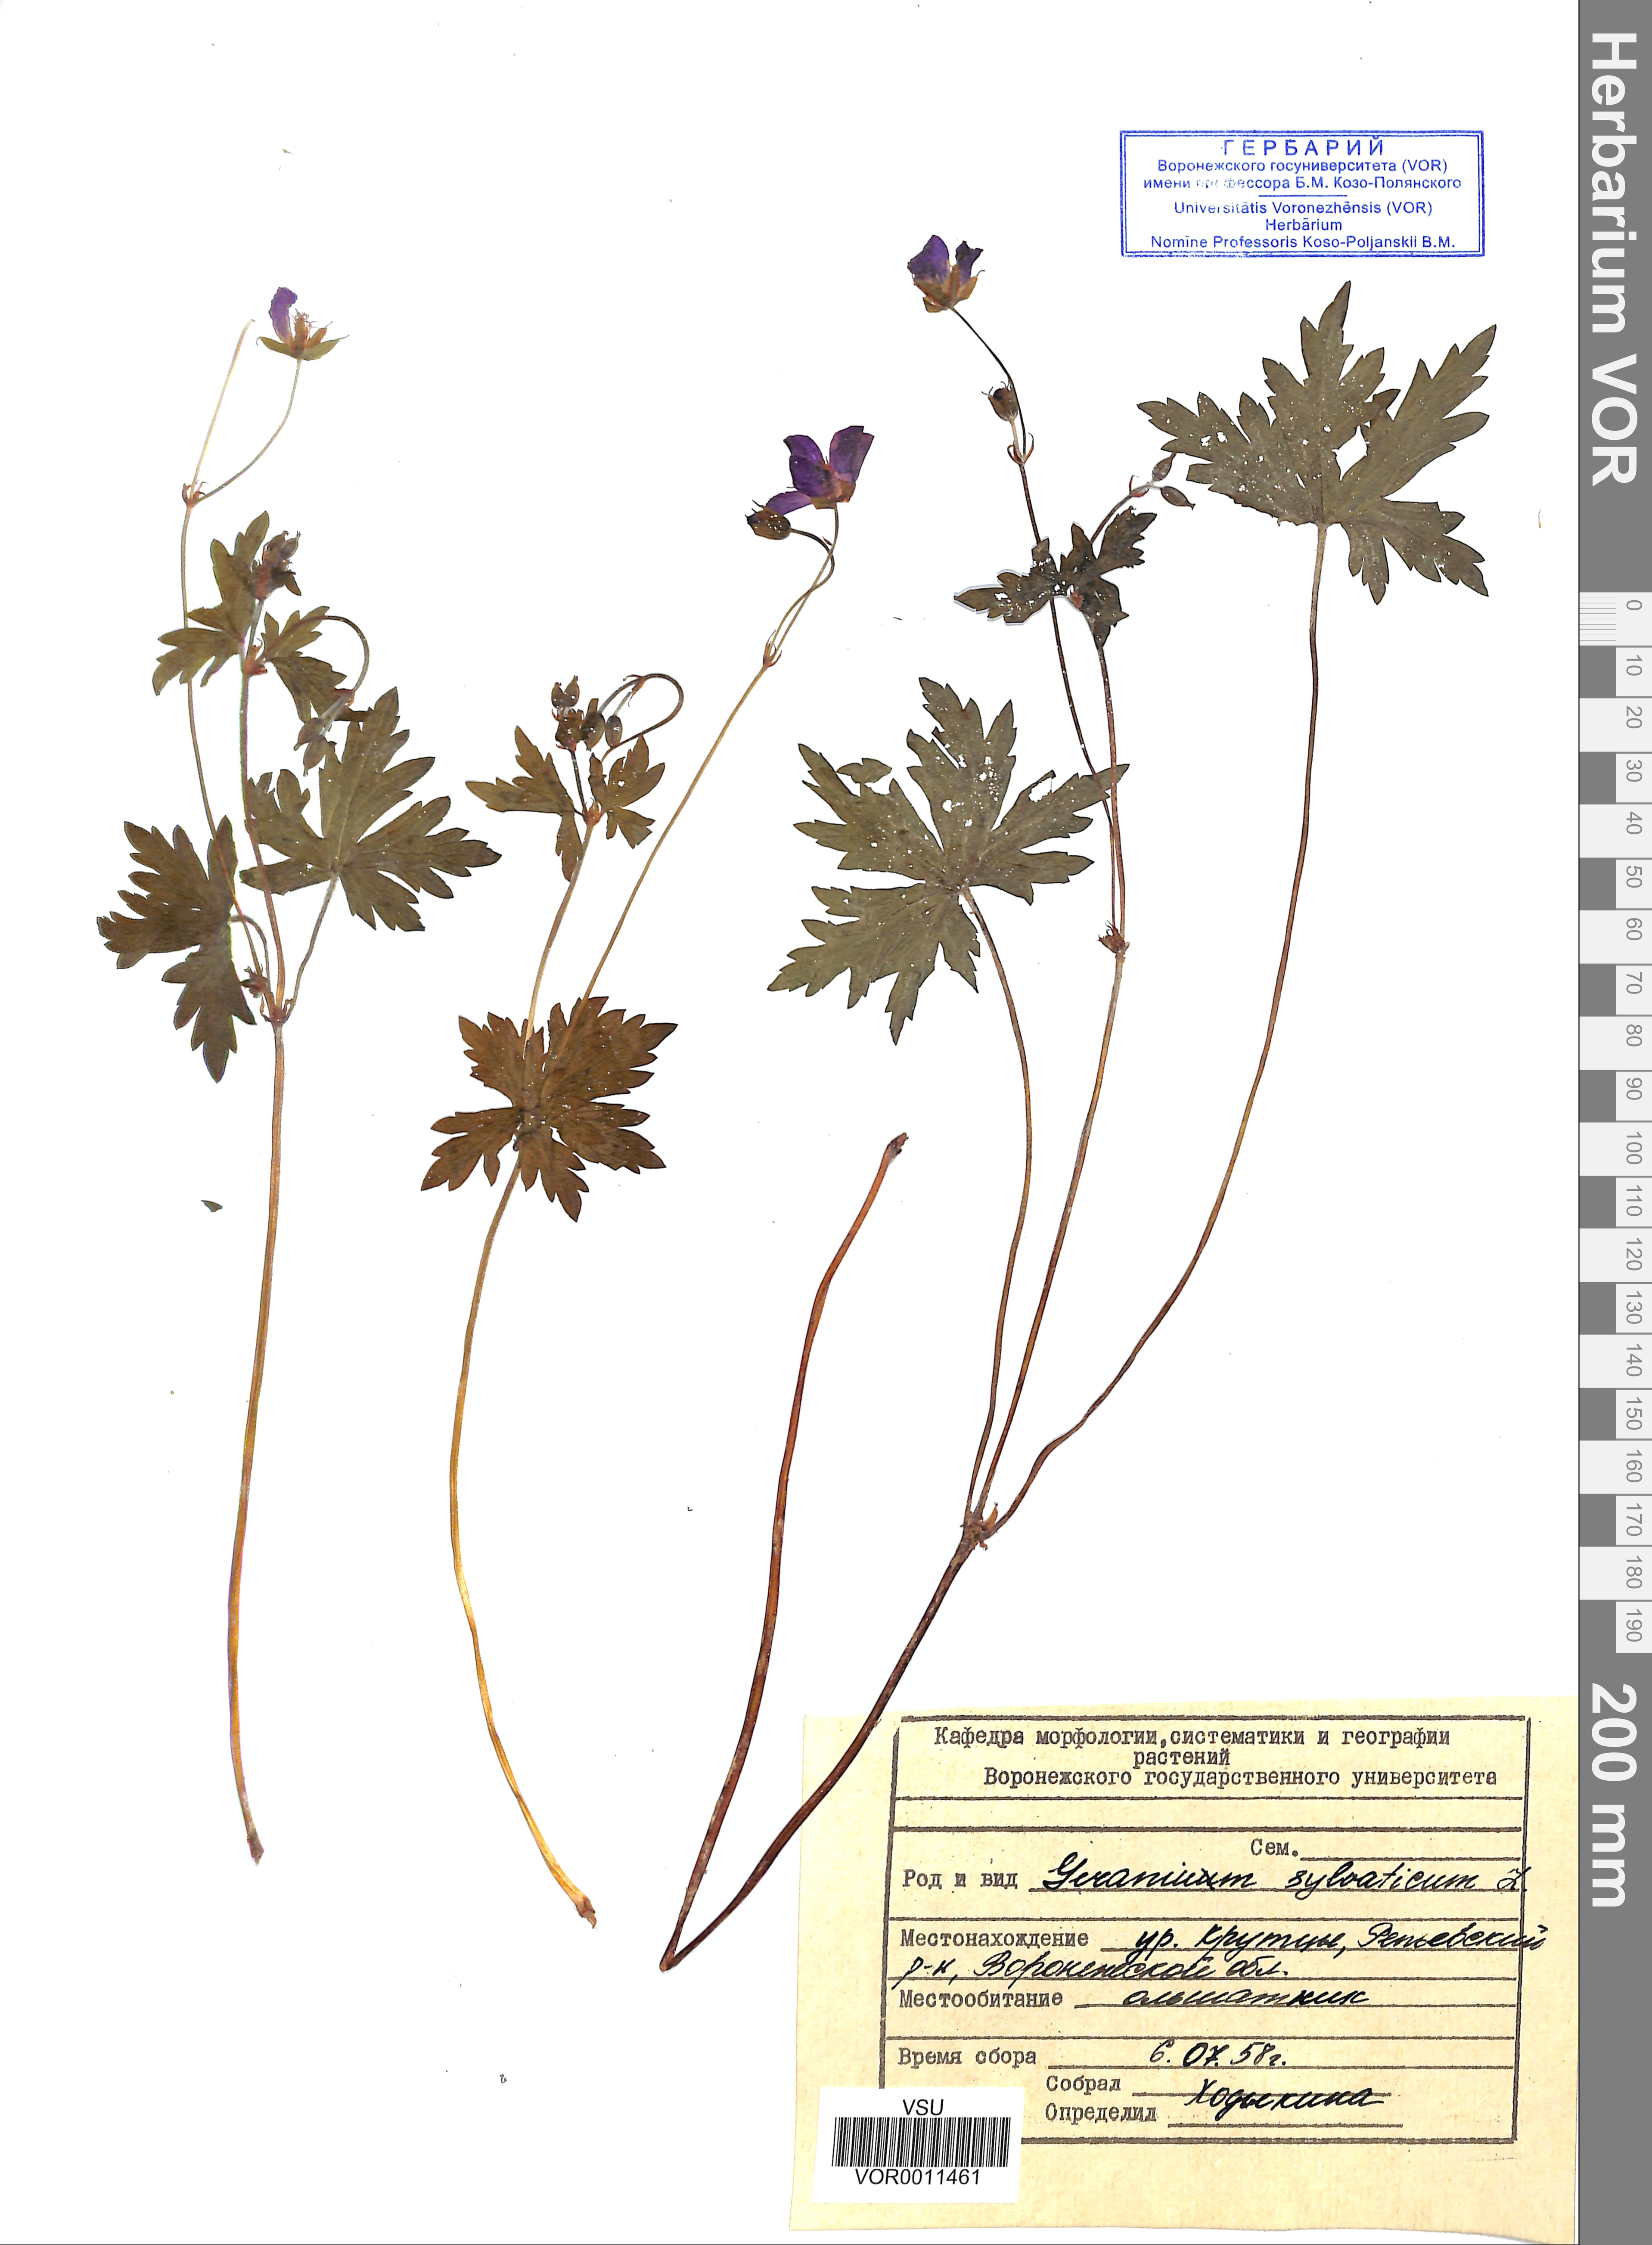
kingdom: Plantae
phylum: Tracheophyta
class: Magnoliopsida
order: Geraniales
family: Geraniaceae
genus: Geranium
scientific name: Geranium sibiricum
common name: Siberian crane's-bill
